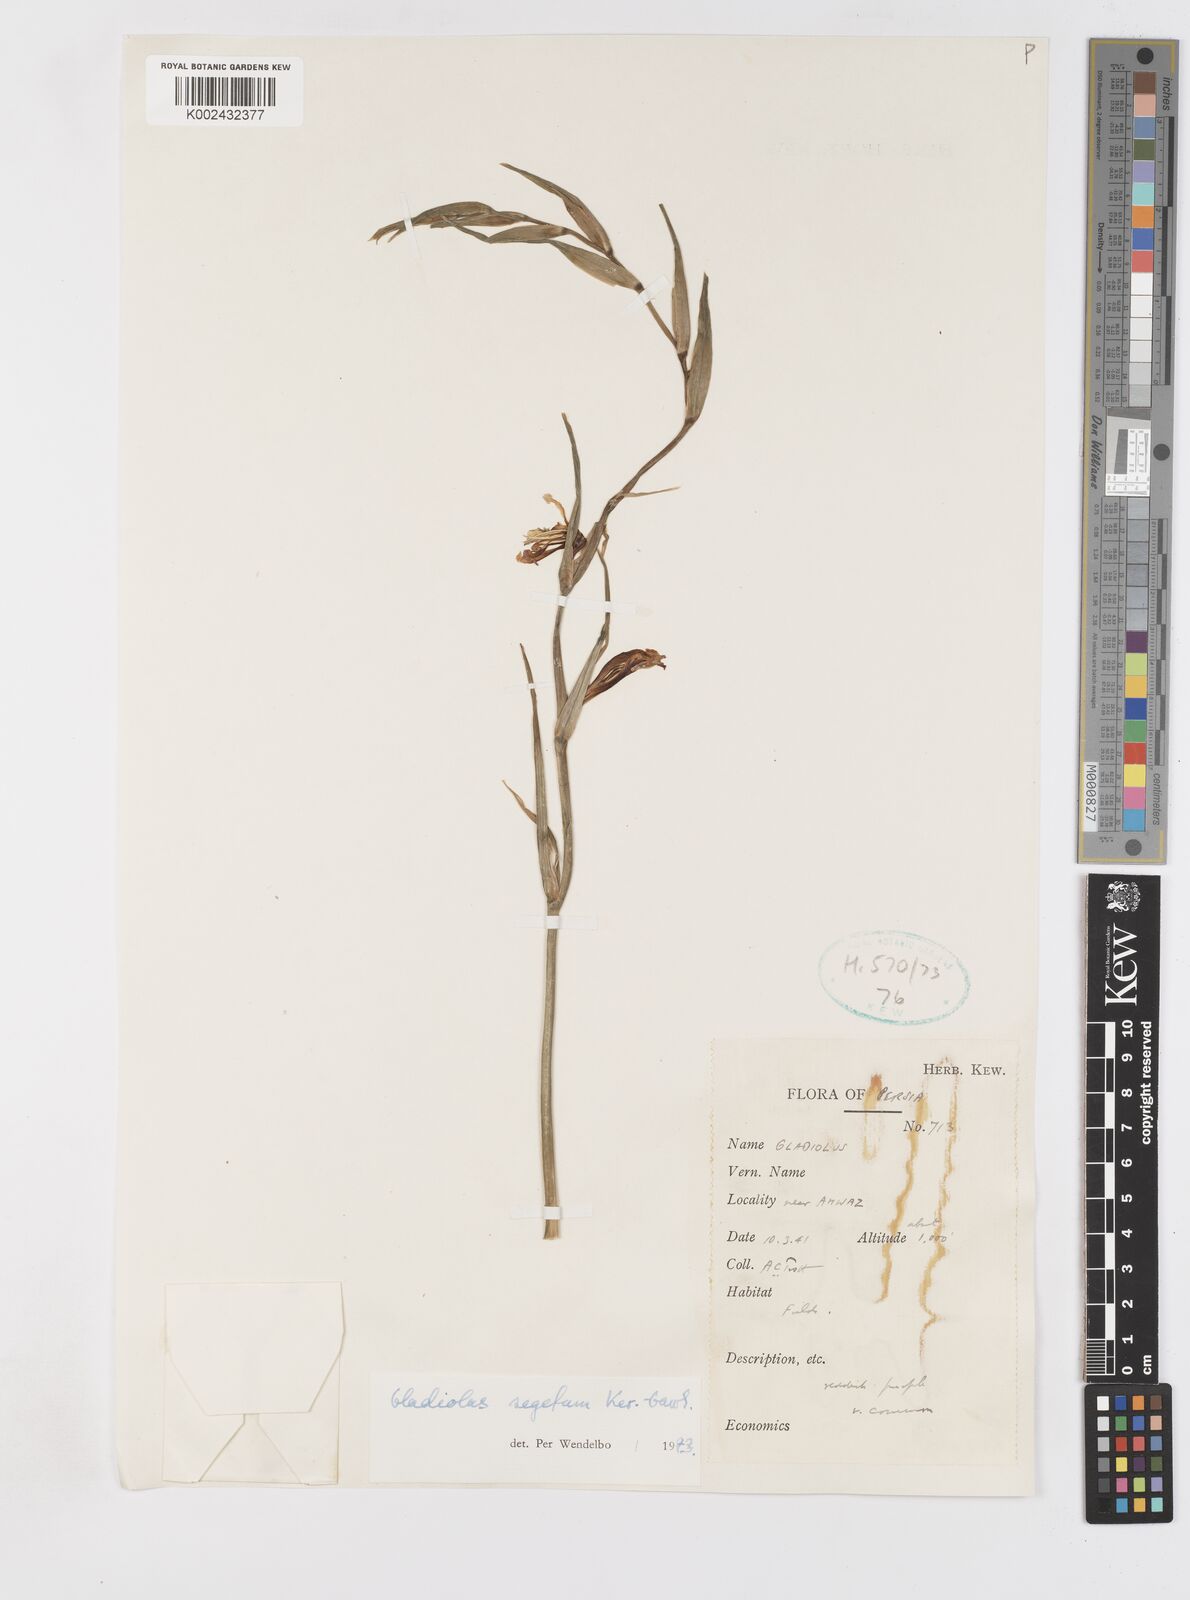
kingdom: Plantae
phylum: Tracheophyta
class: Liliopsida
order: Asparagales
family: Iridaceae
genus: Gladiolus
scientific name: Gladiolus italicus
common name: Field gladiolus
